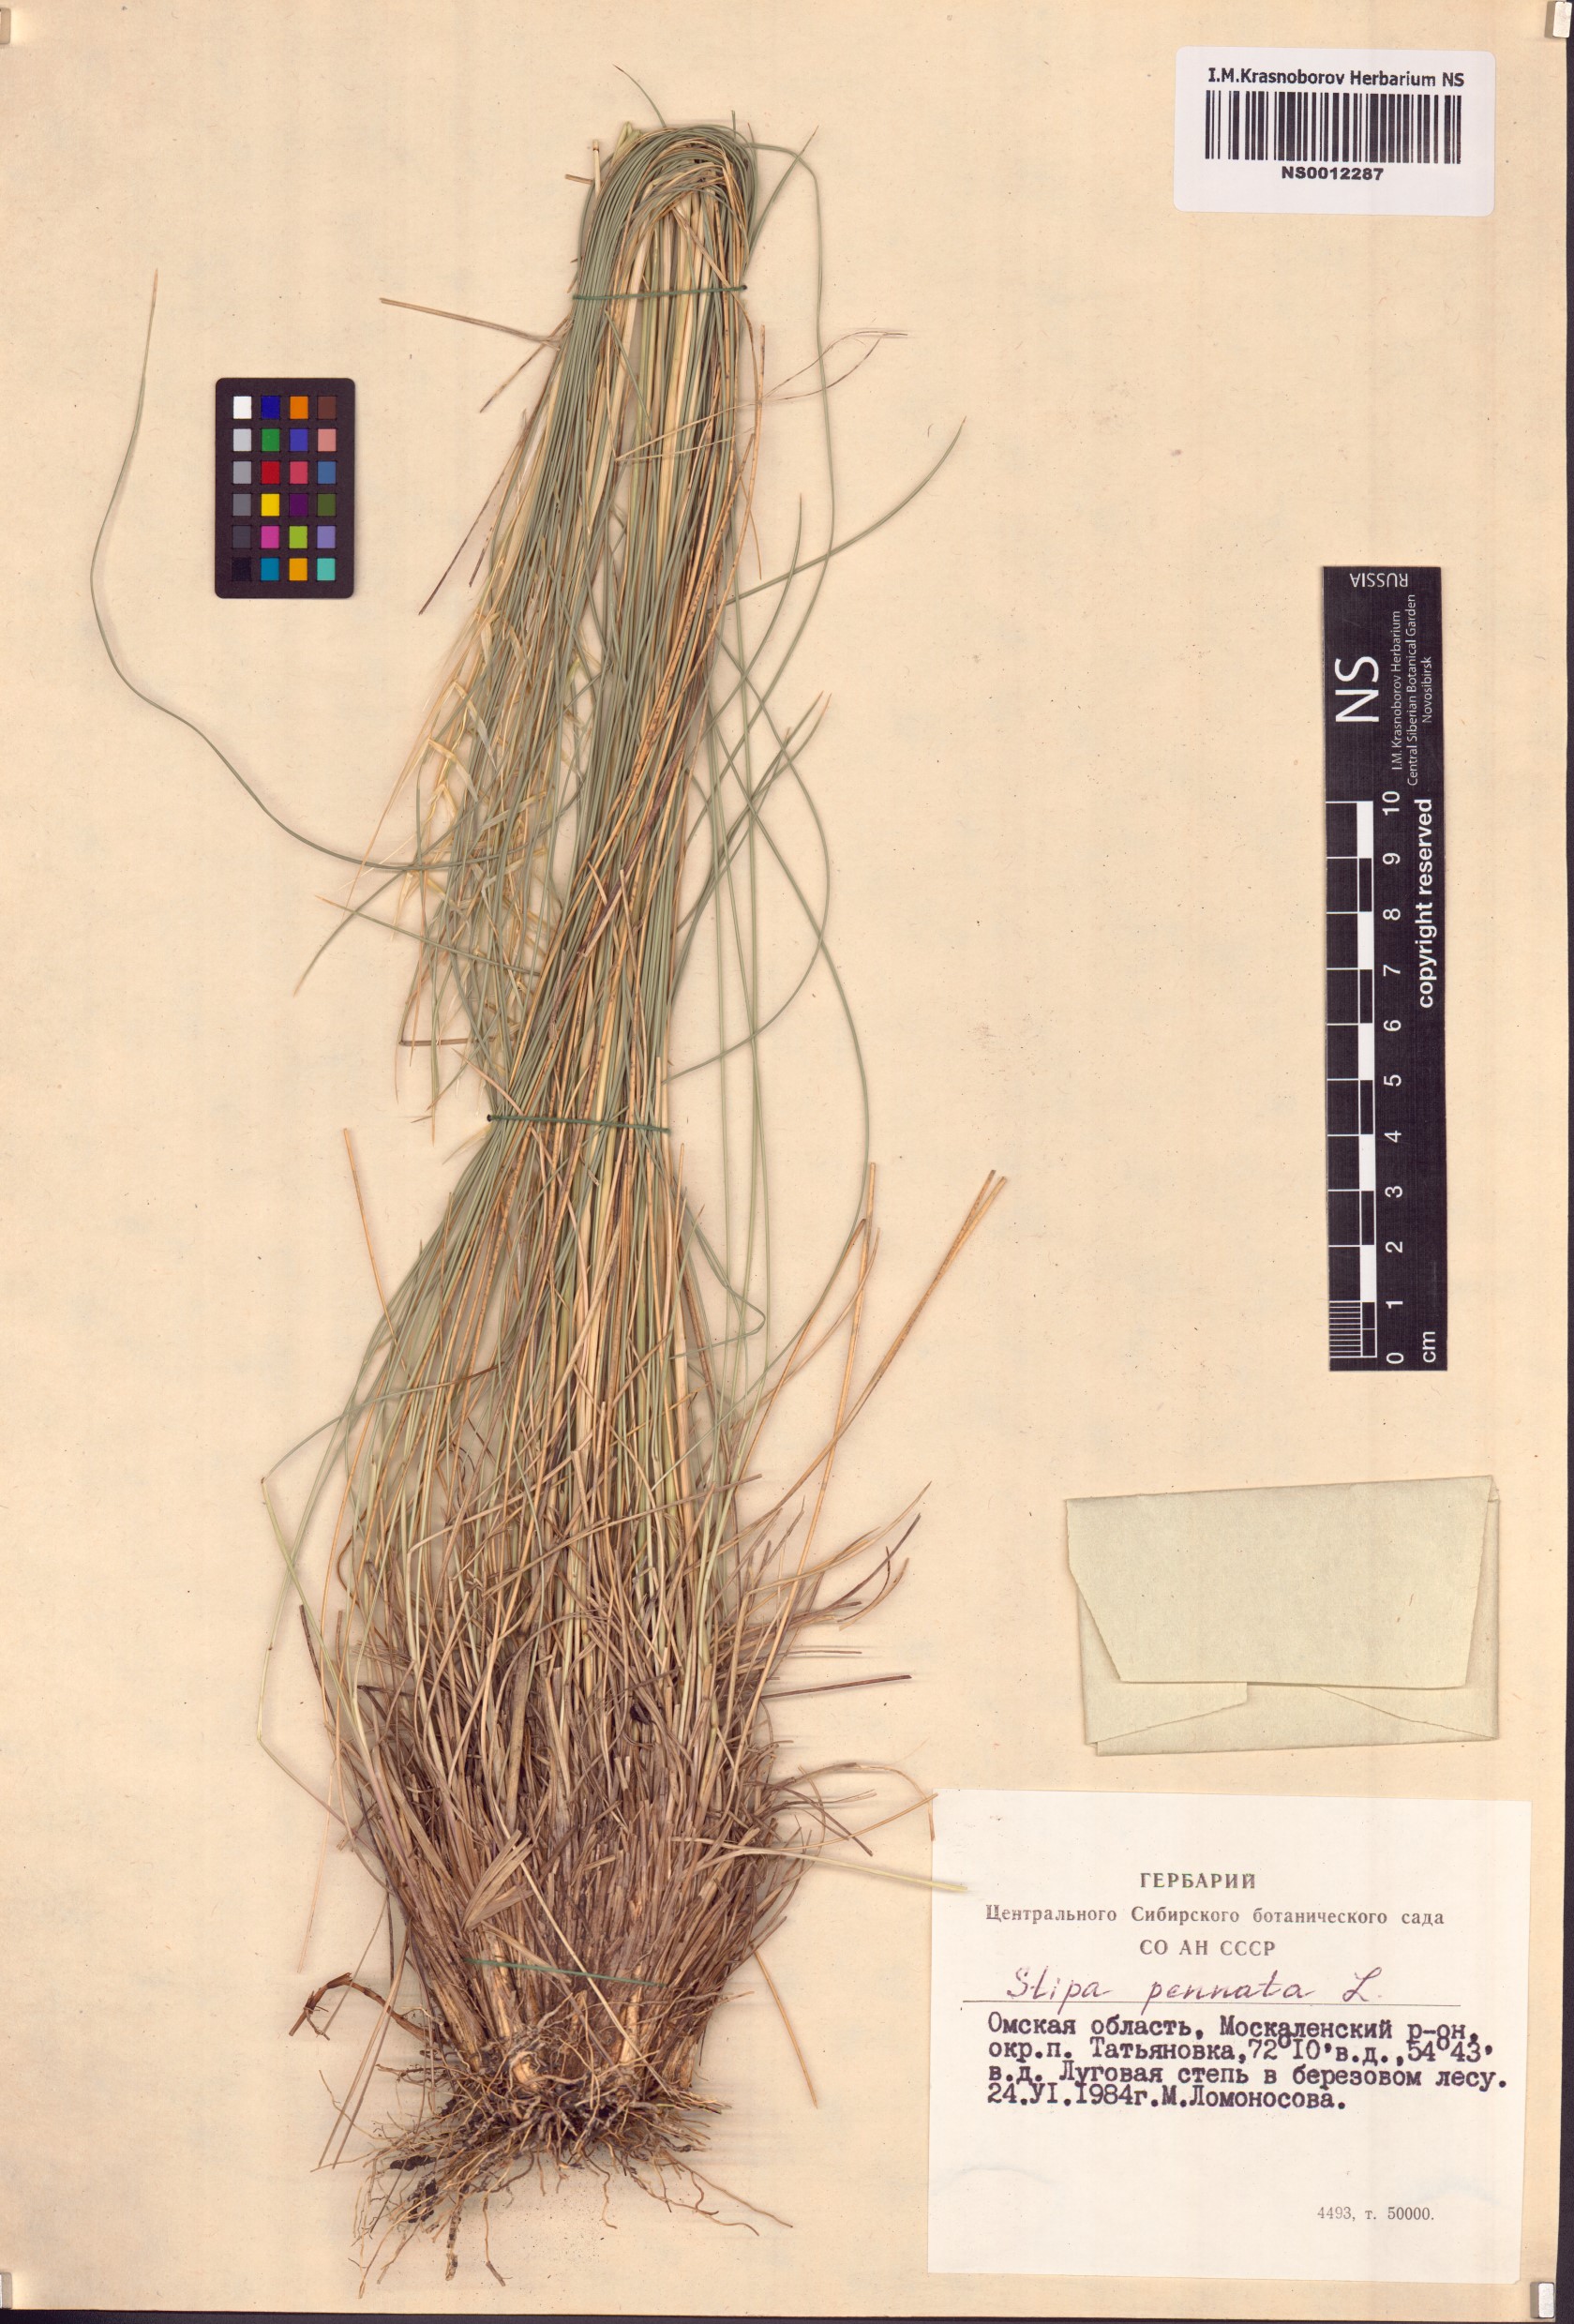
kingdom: Plantae
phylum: Tracheophyta
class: Liliopsida
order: Poales
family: Poaceae
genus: Stipa
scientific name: Stipa pennata
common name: European feather grass
